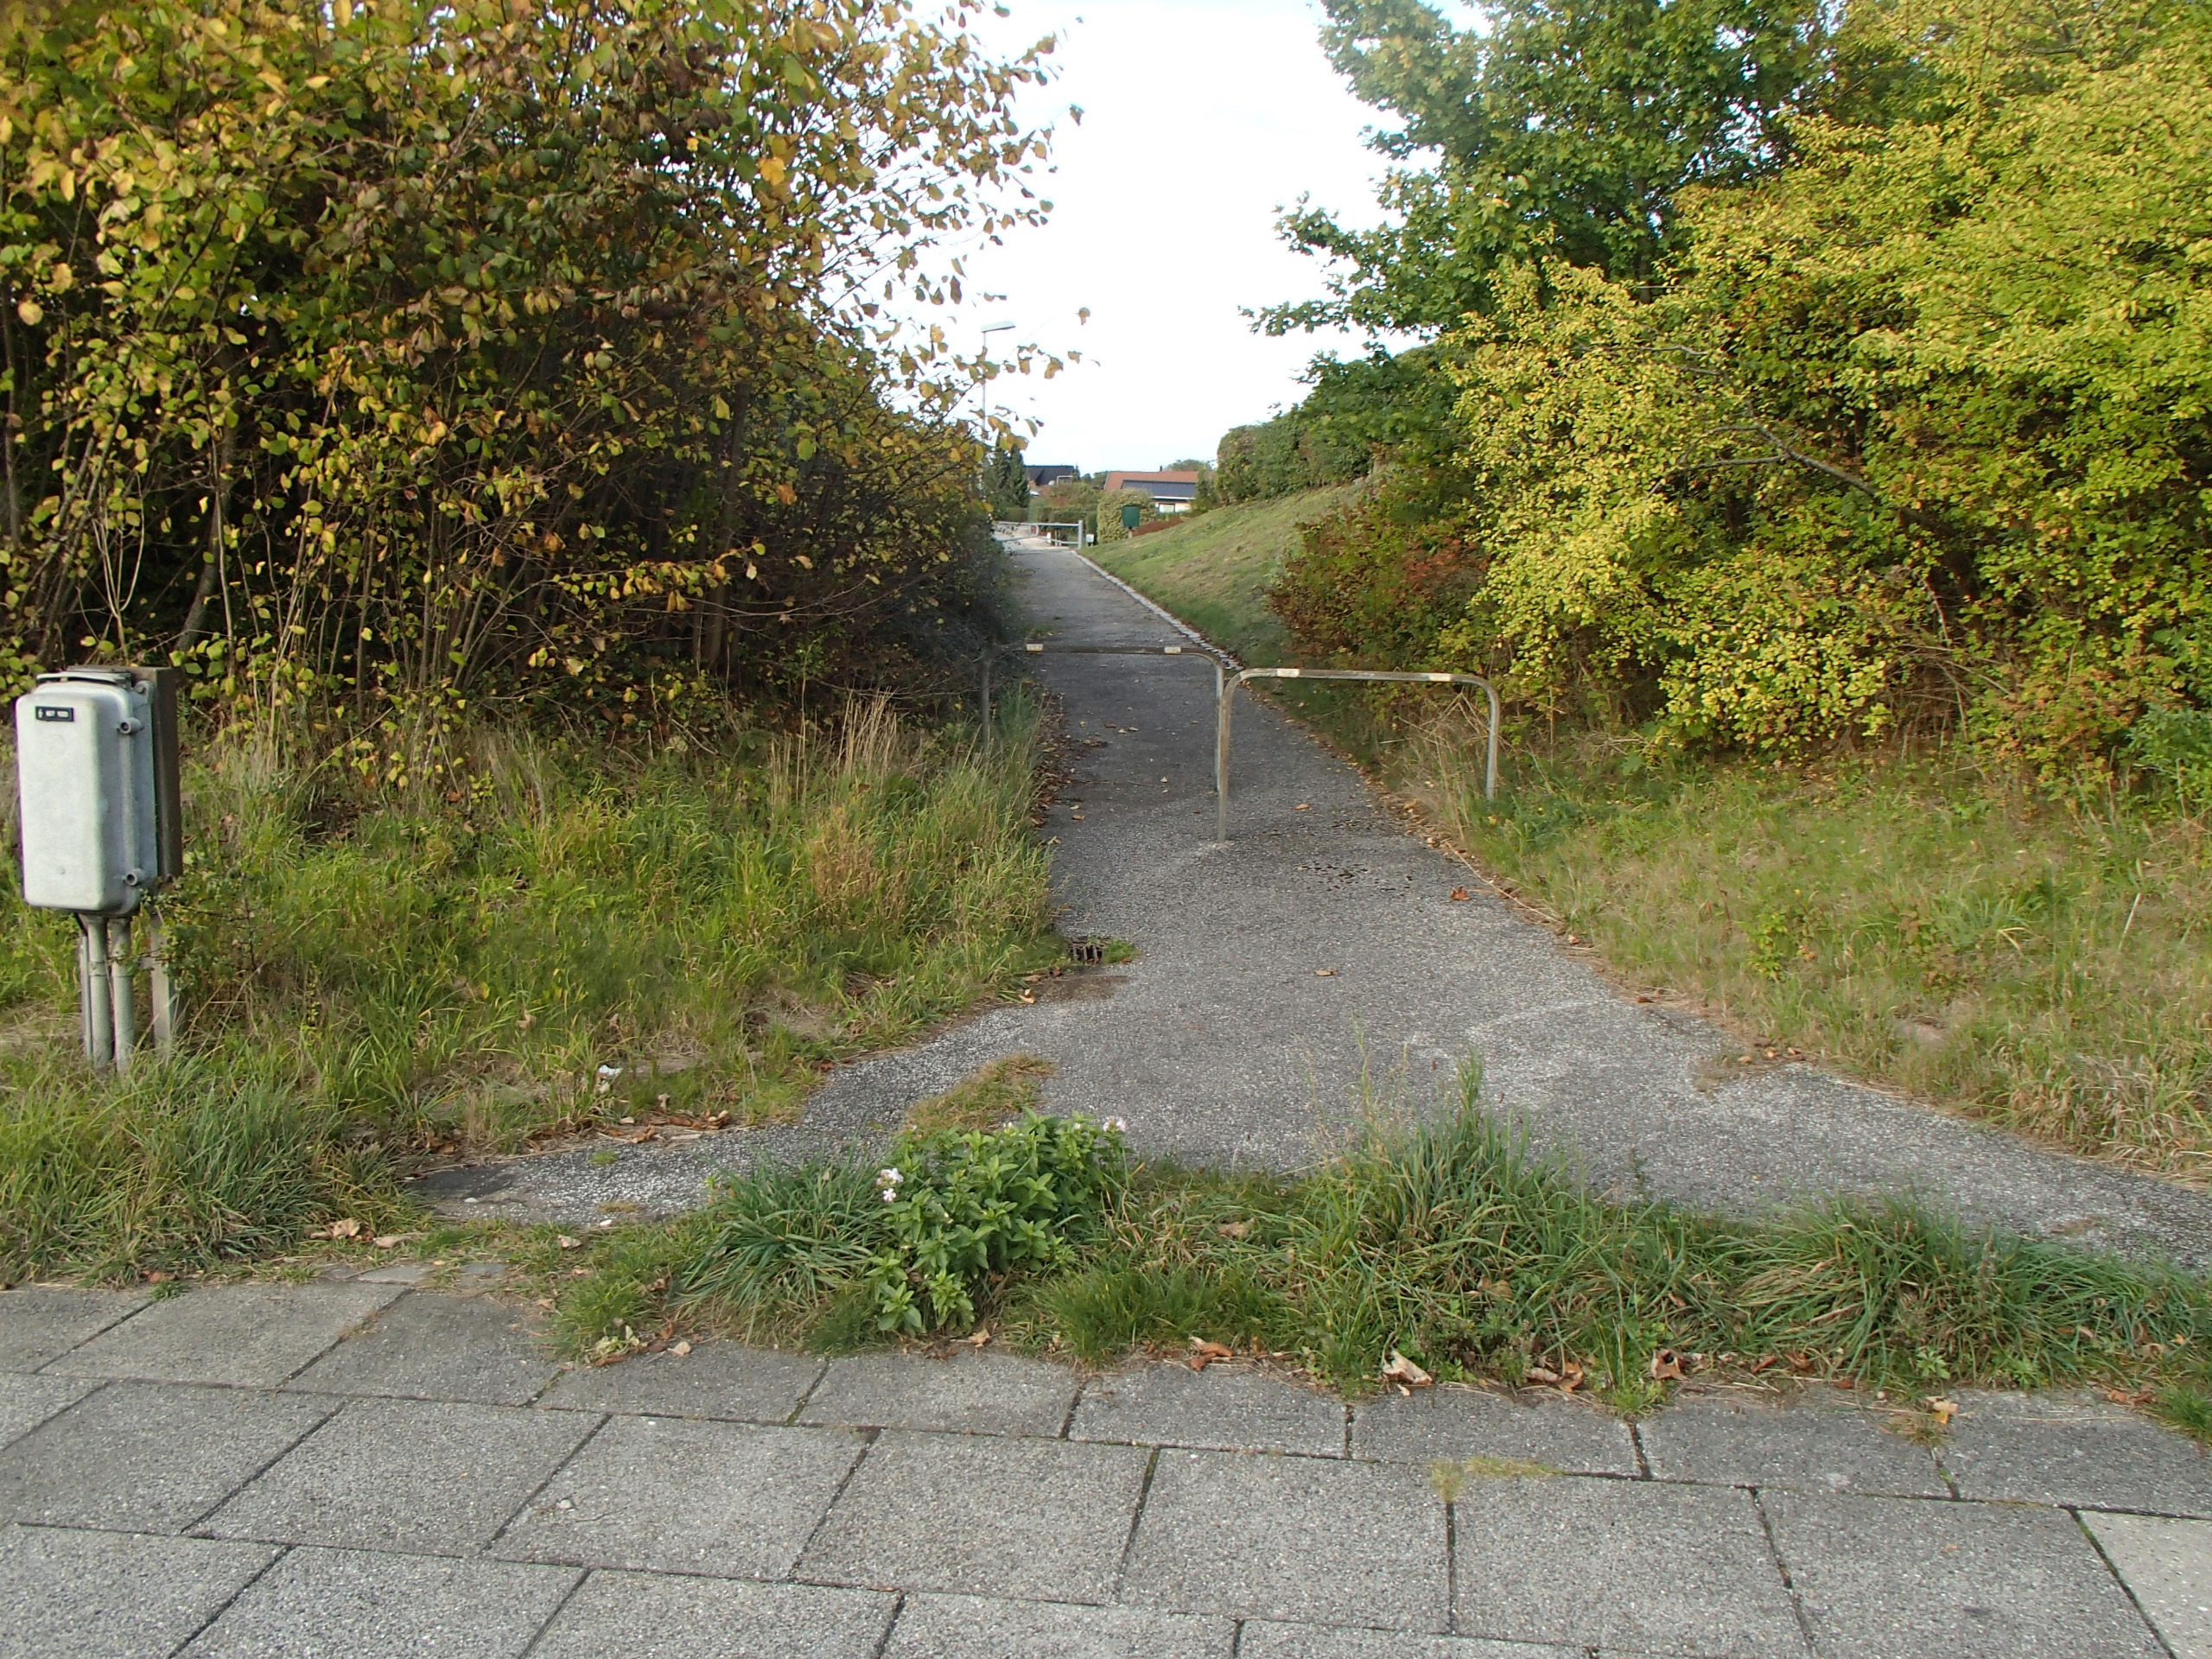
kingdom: Plantae
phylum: Tracheophyta
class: Magnoliopsida
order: Caryophyllales
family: Caryophyllaceae
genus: Saponaria
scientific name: Saponaria officinalis
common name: Sæbeurt
